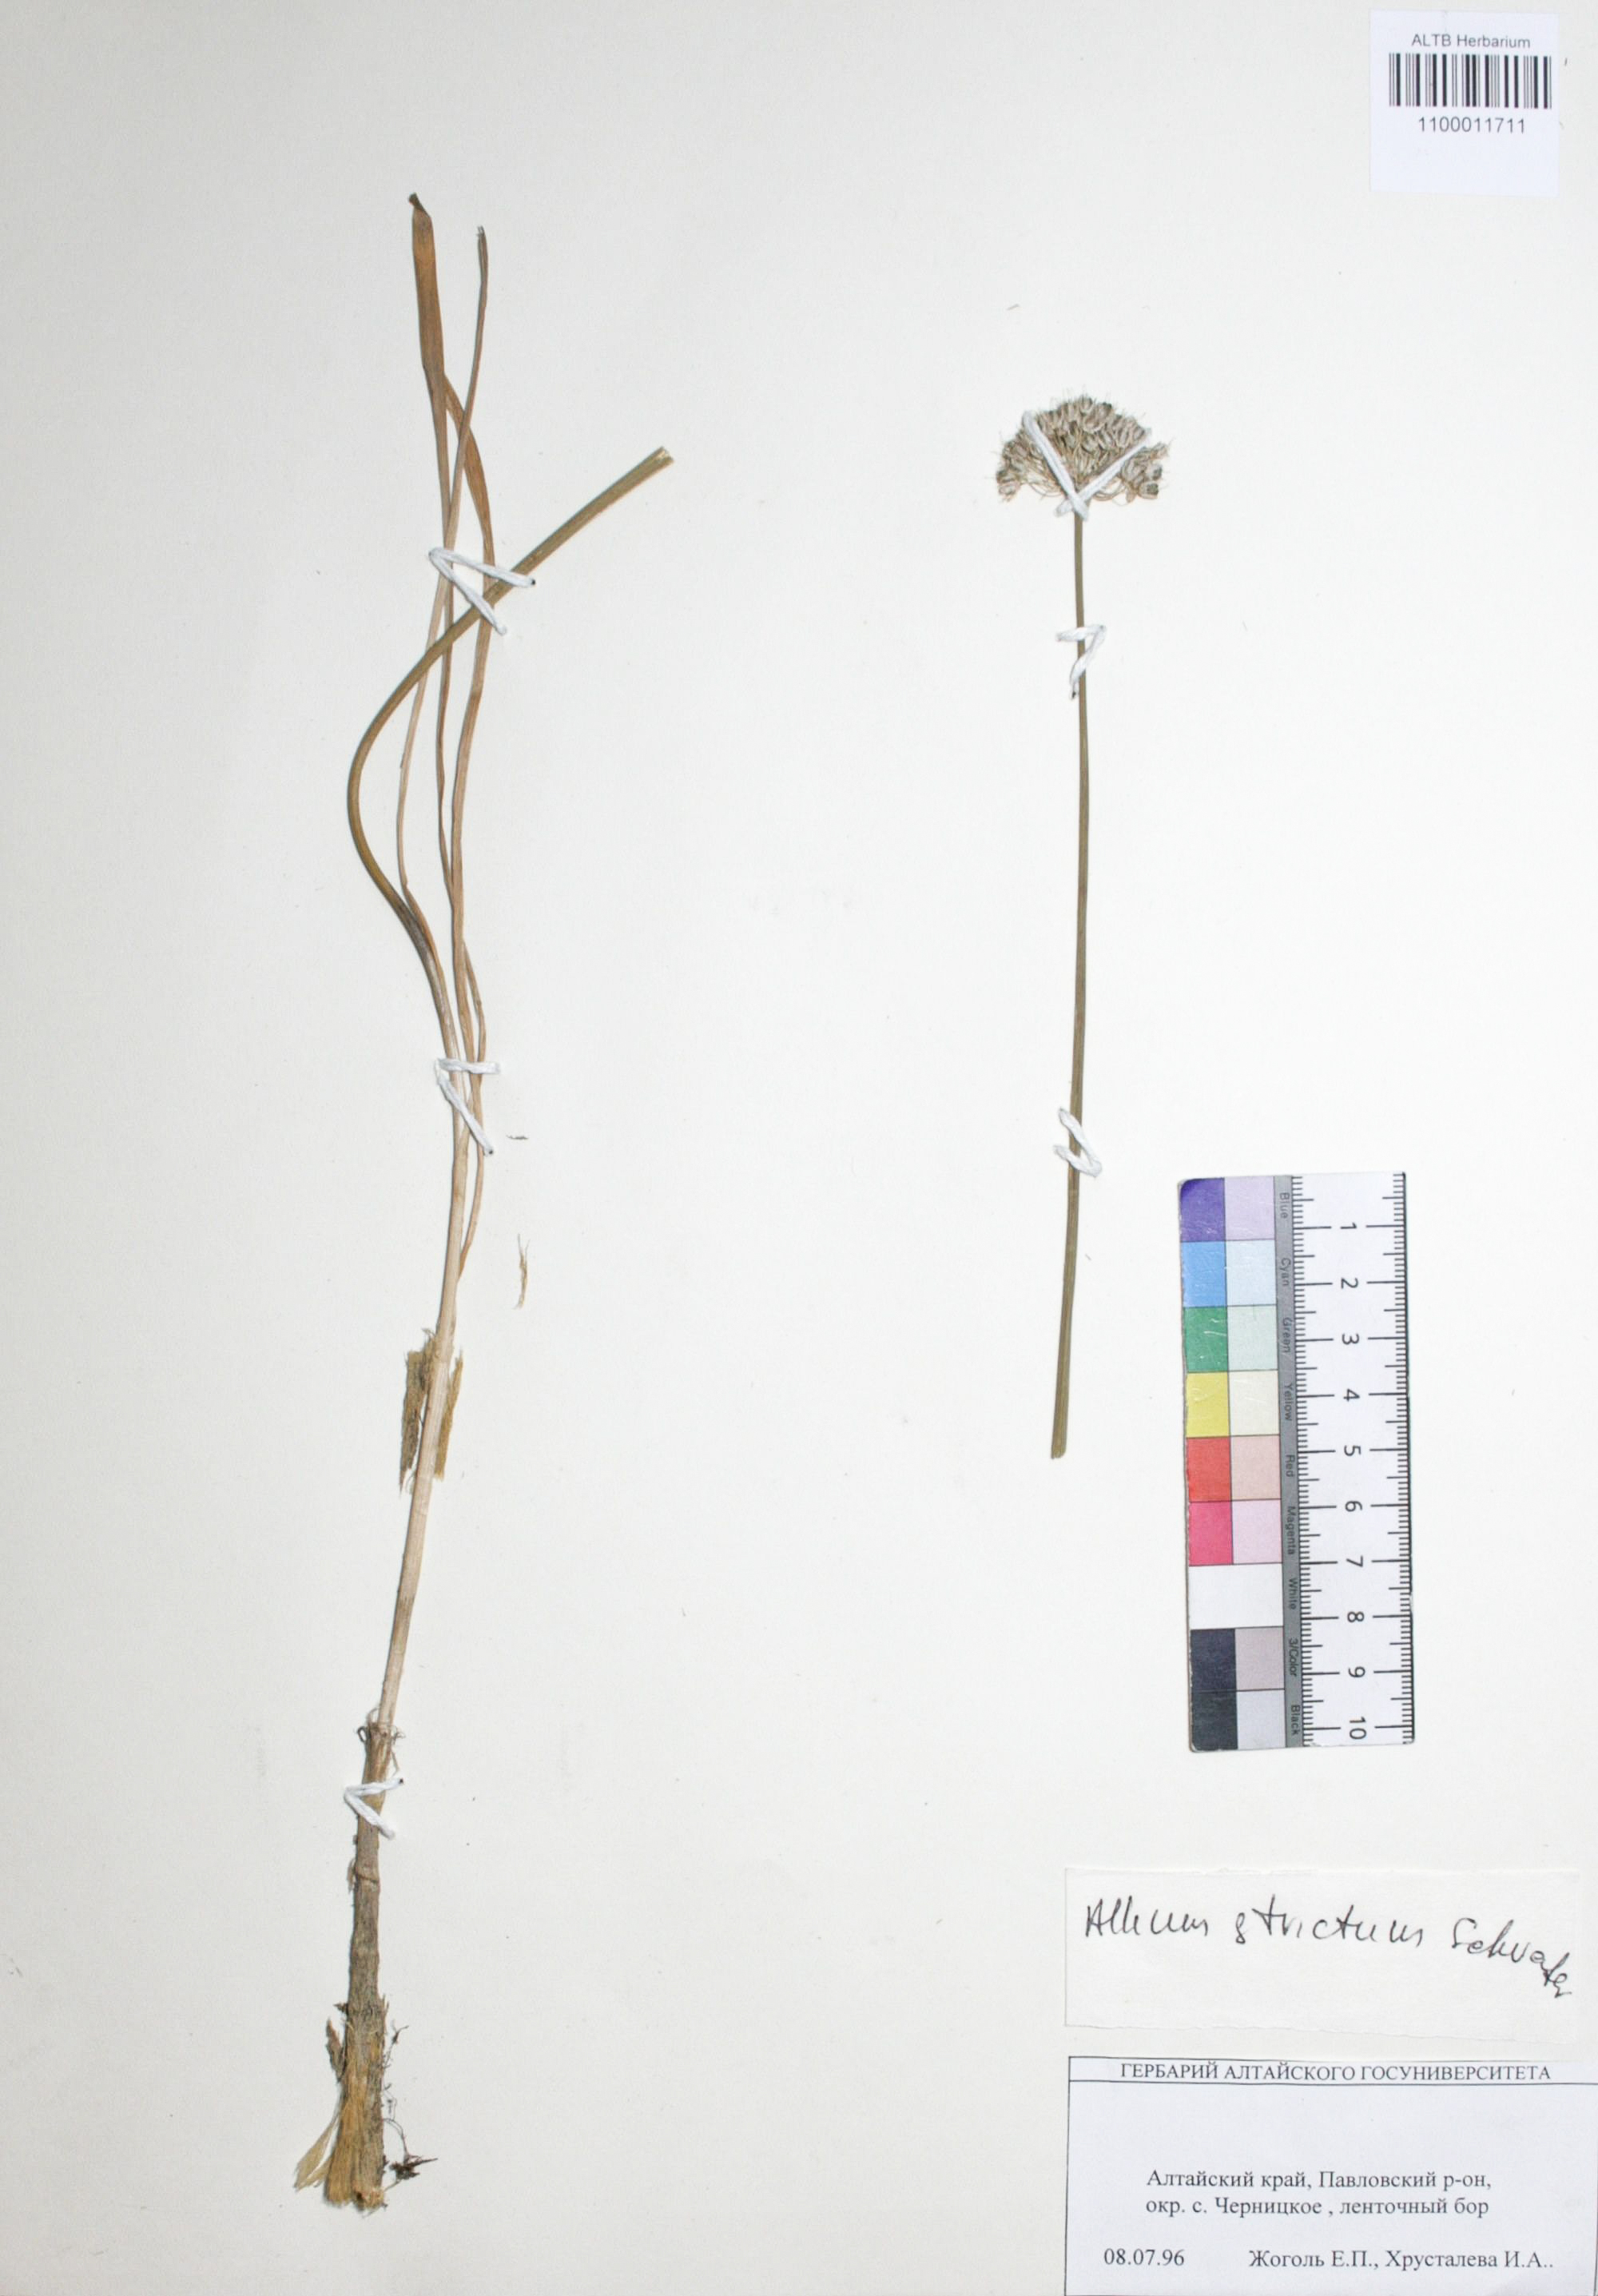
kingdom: Plantae
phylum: Tracheophyta
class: Liliopsida
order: Asparagales
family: Amaryllidaceae
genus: Allium
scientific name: Allium strictum
